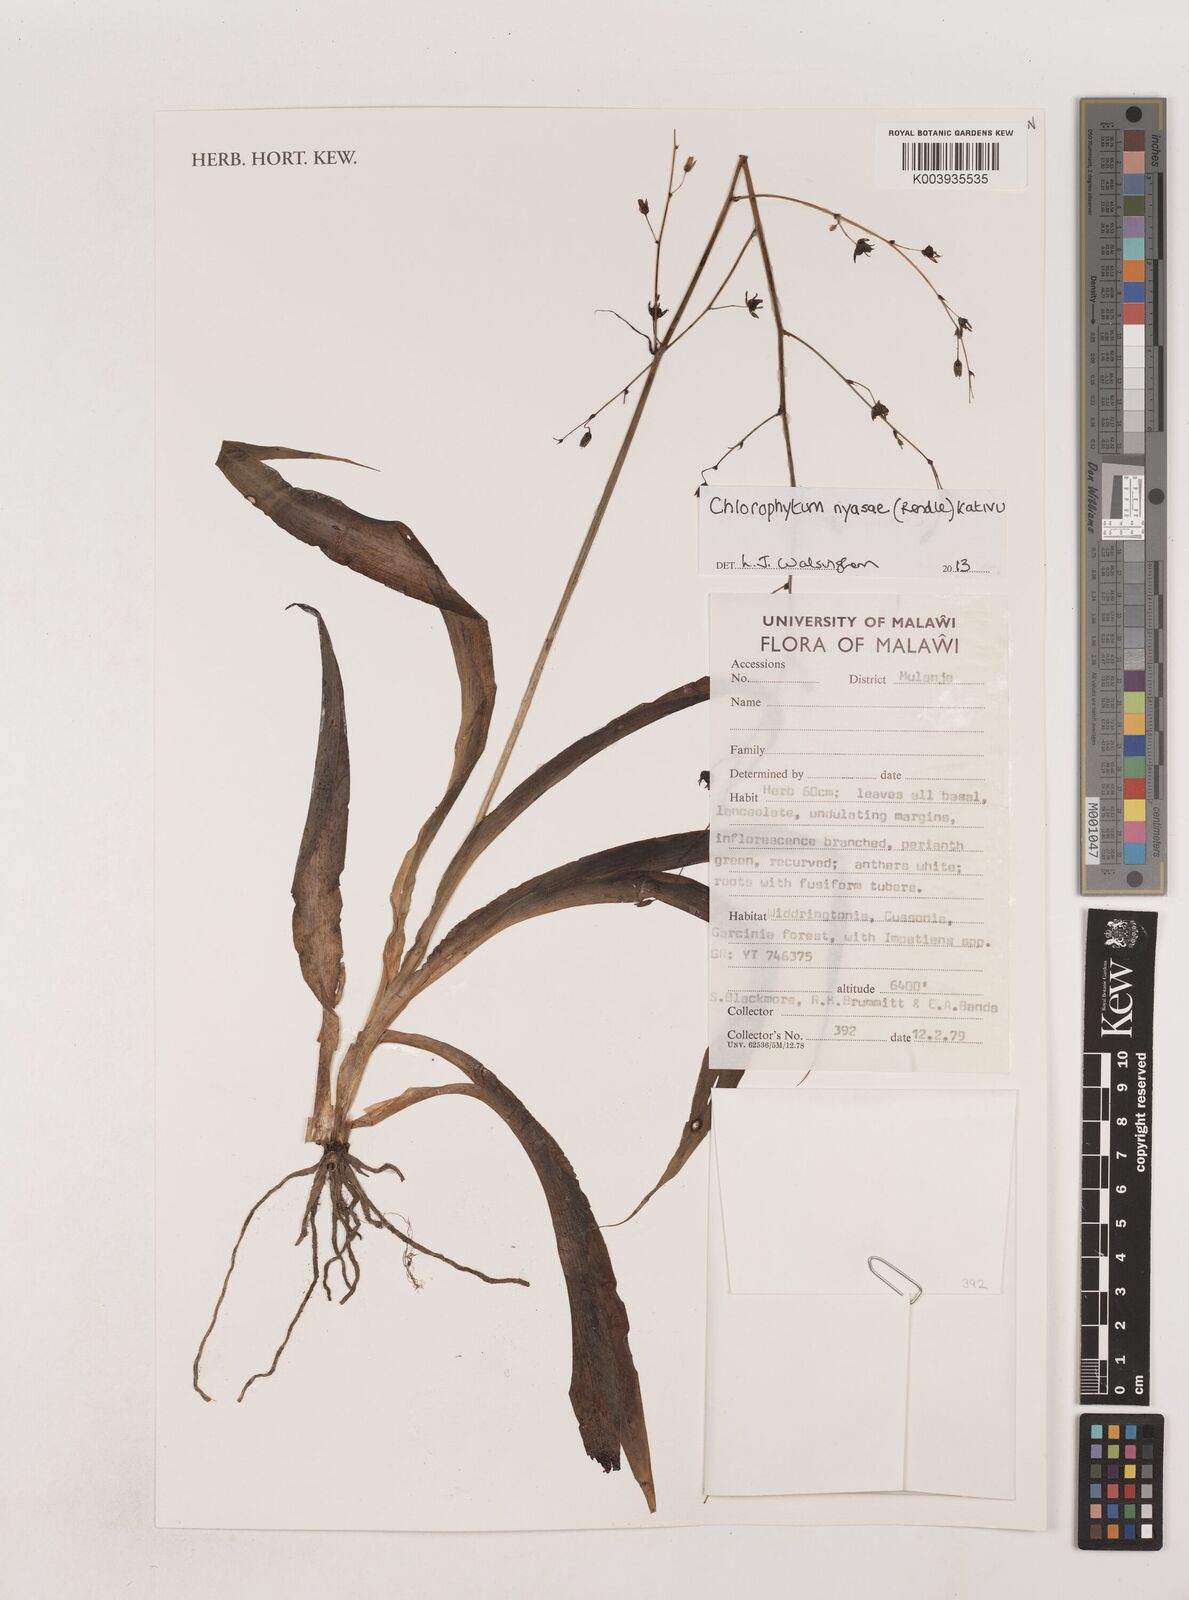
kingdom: Plantae
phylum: Tracheophyta
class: Liliopsida
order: Asparagales
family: Asparagaceae
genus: Chlorophytum
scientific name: Chlorophytum nyasae
